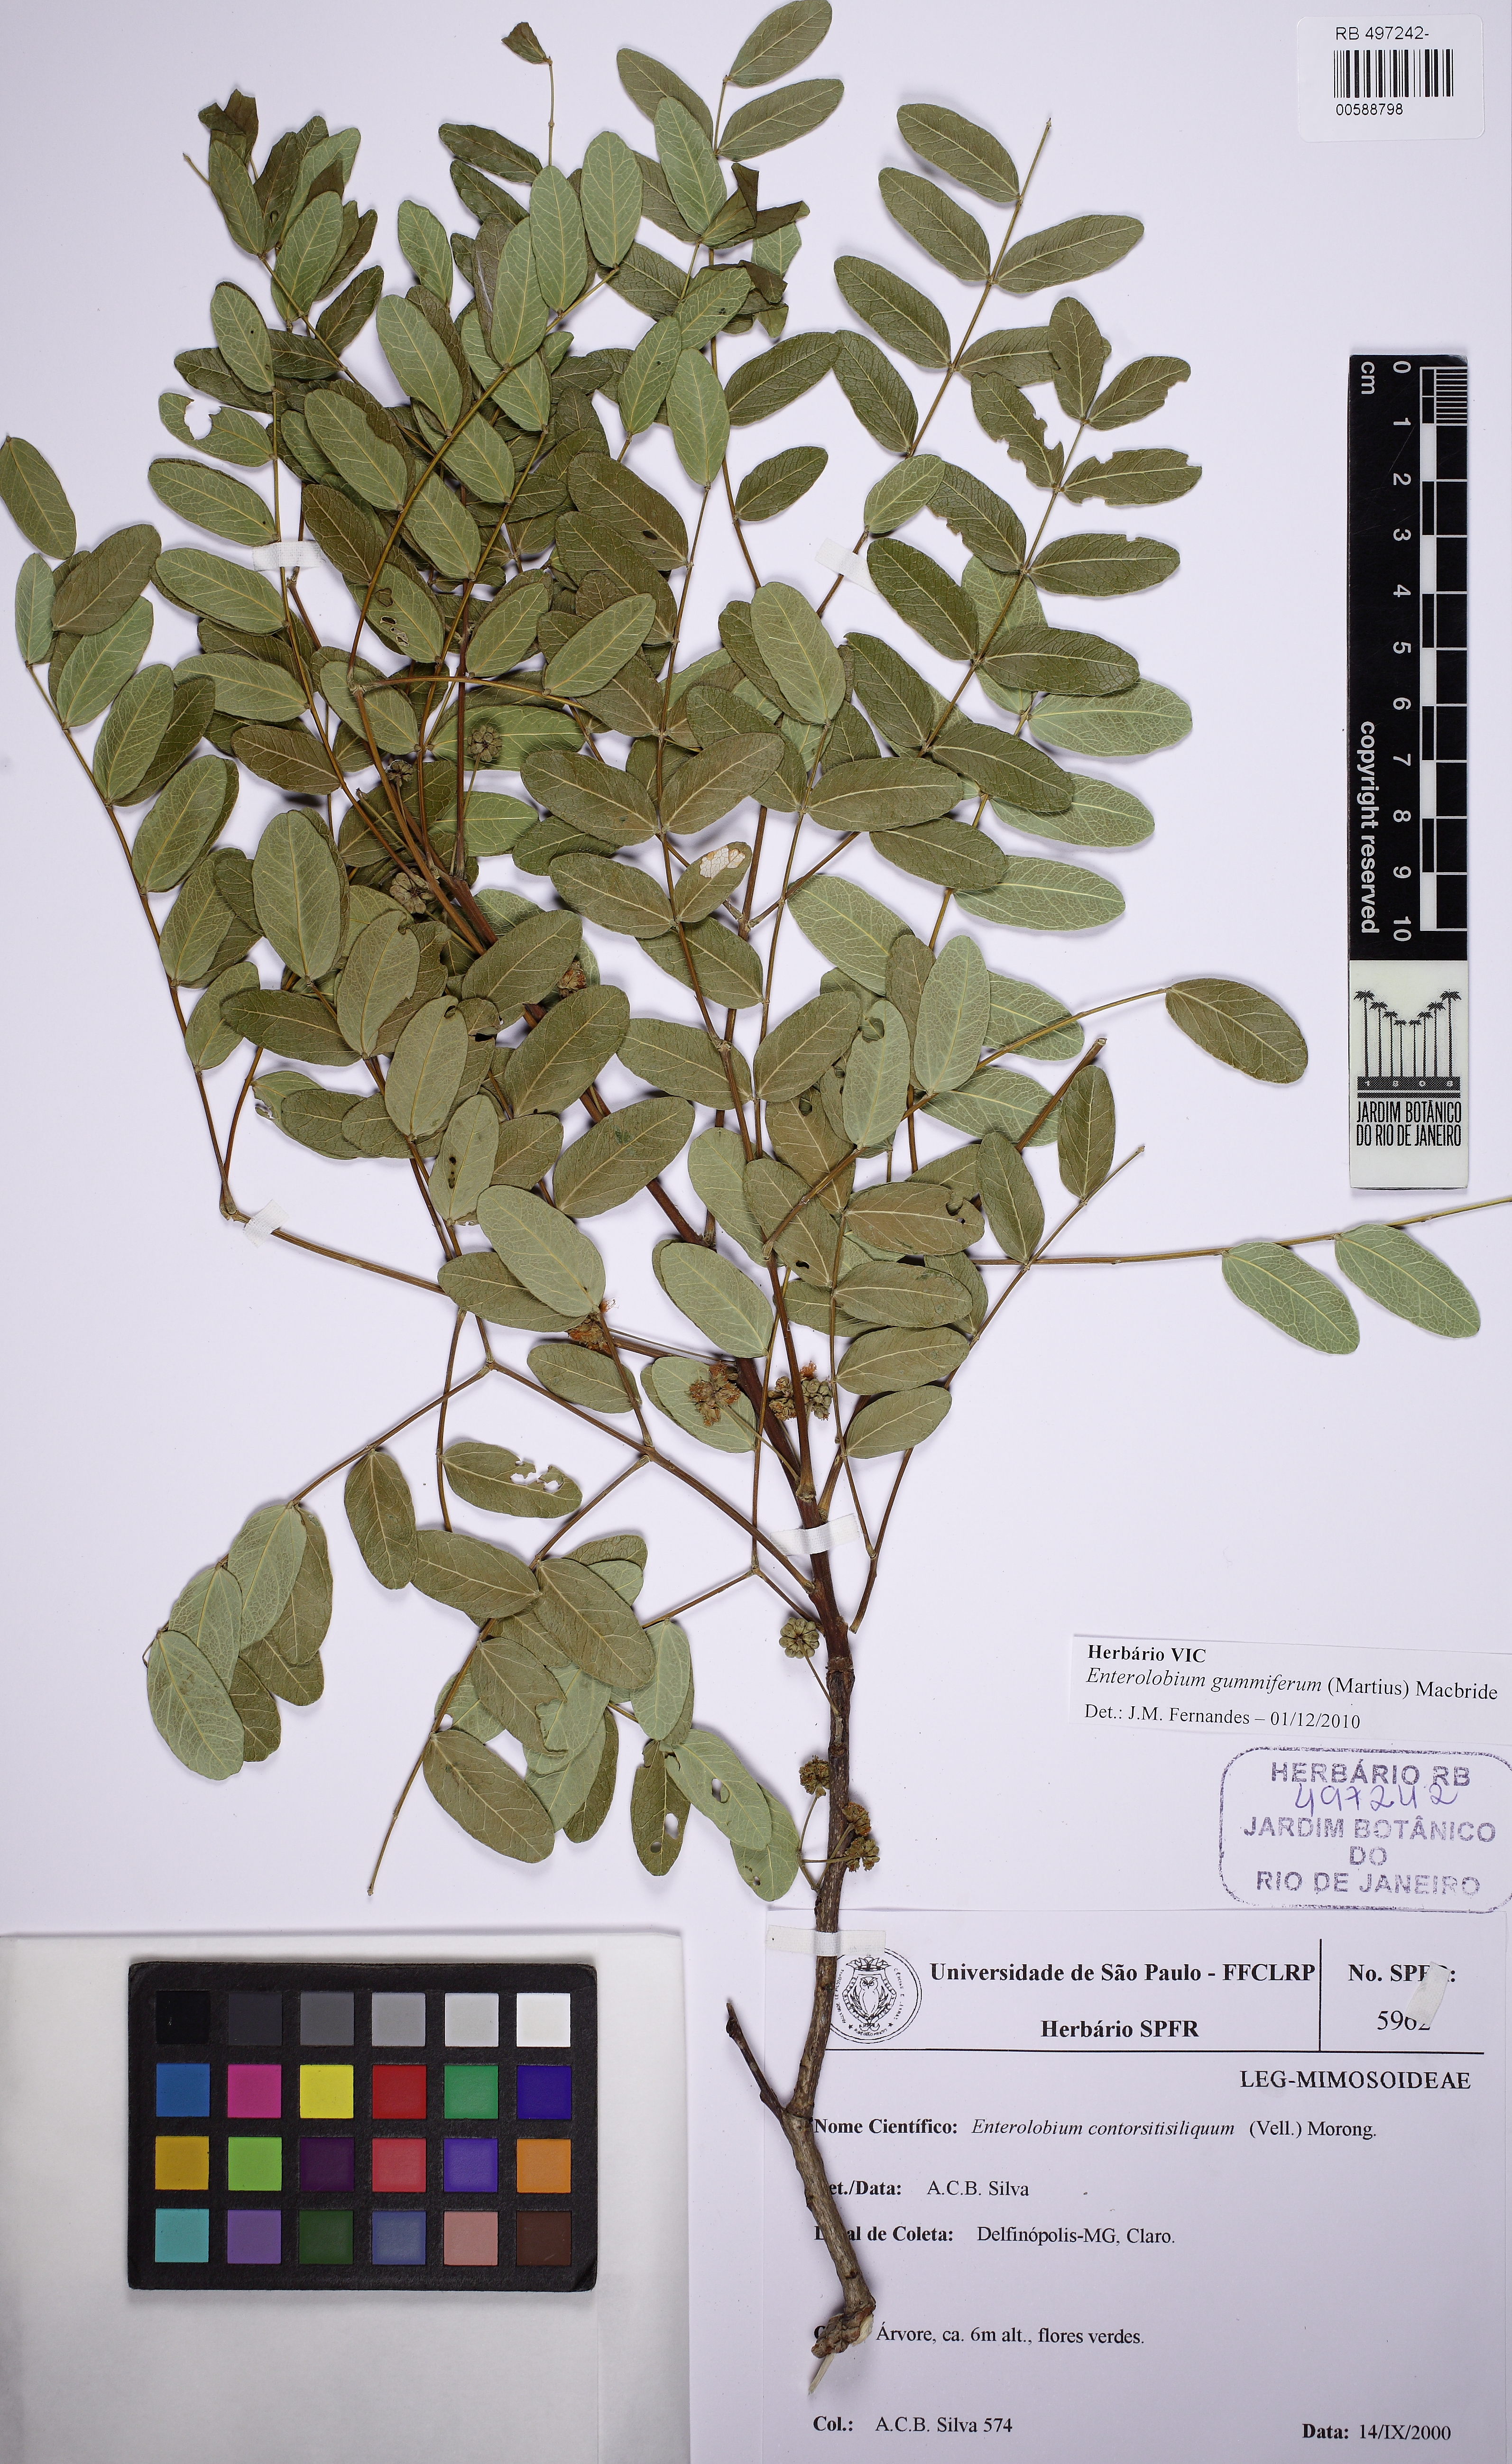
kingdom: Plantae
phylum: Tracheophyta
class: Magnoliopsida
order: Fabales
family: Fabaceae
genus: Enterolobium
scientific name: Enterolobium gummiferum
